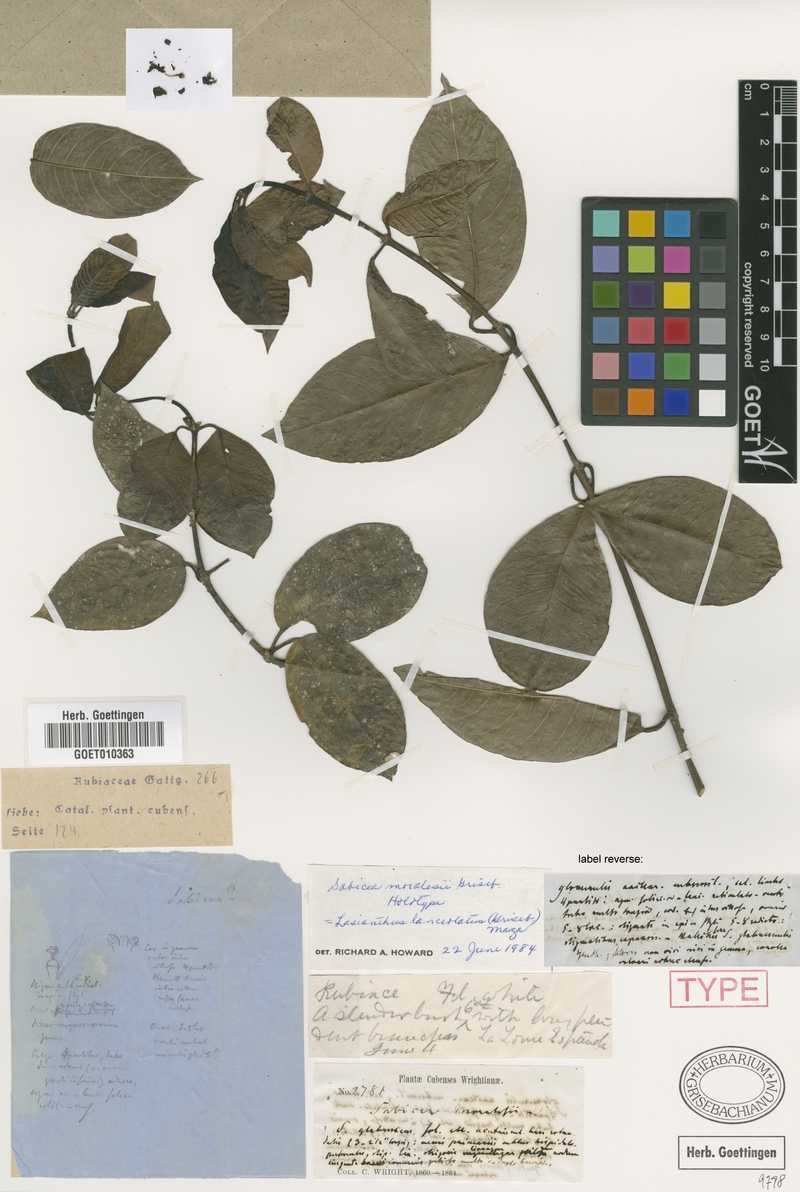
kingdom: Plantae
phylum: Tracheophyta
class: Magnoliopsida
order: Gentianales
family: Rubiaceae
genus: Lasianthus
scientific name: Lasianthus lanceolatus
